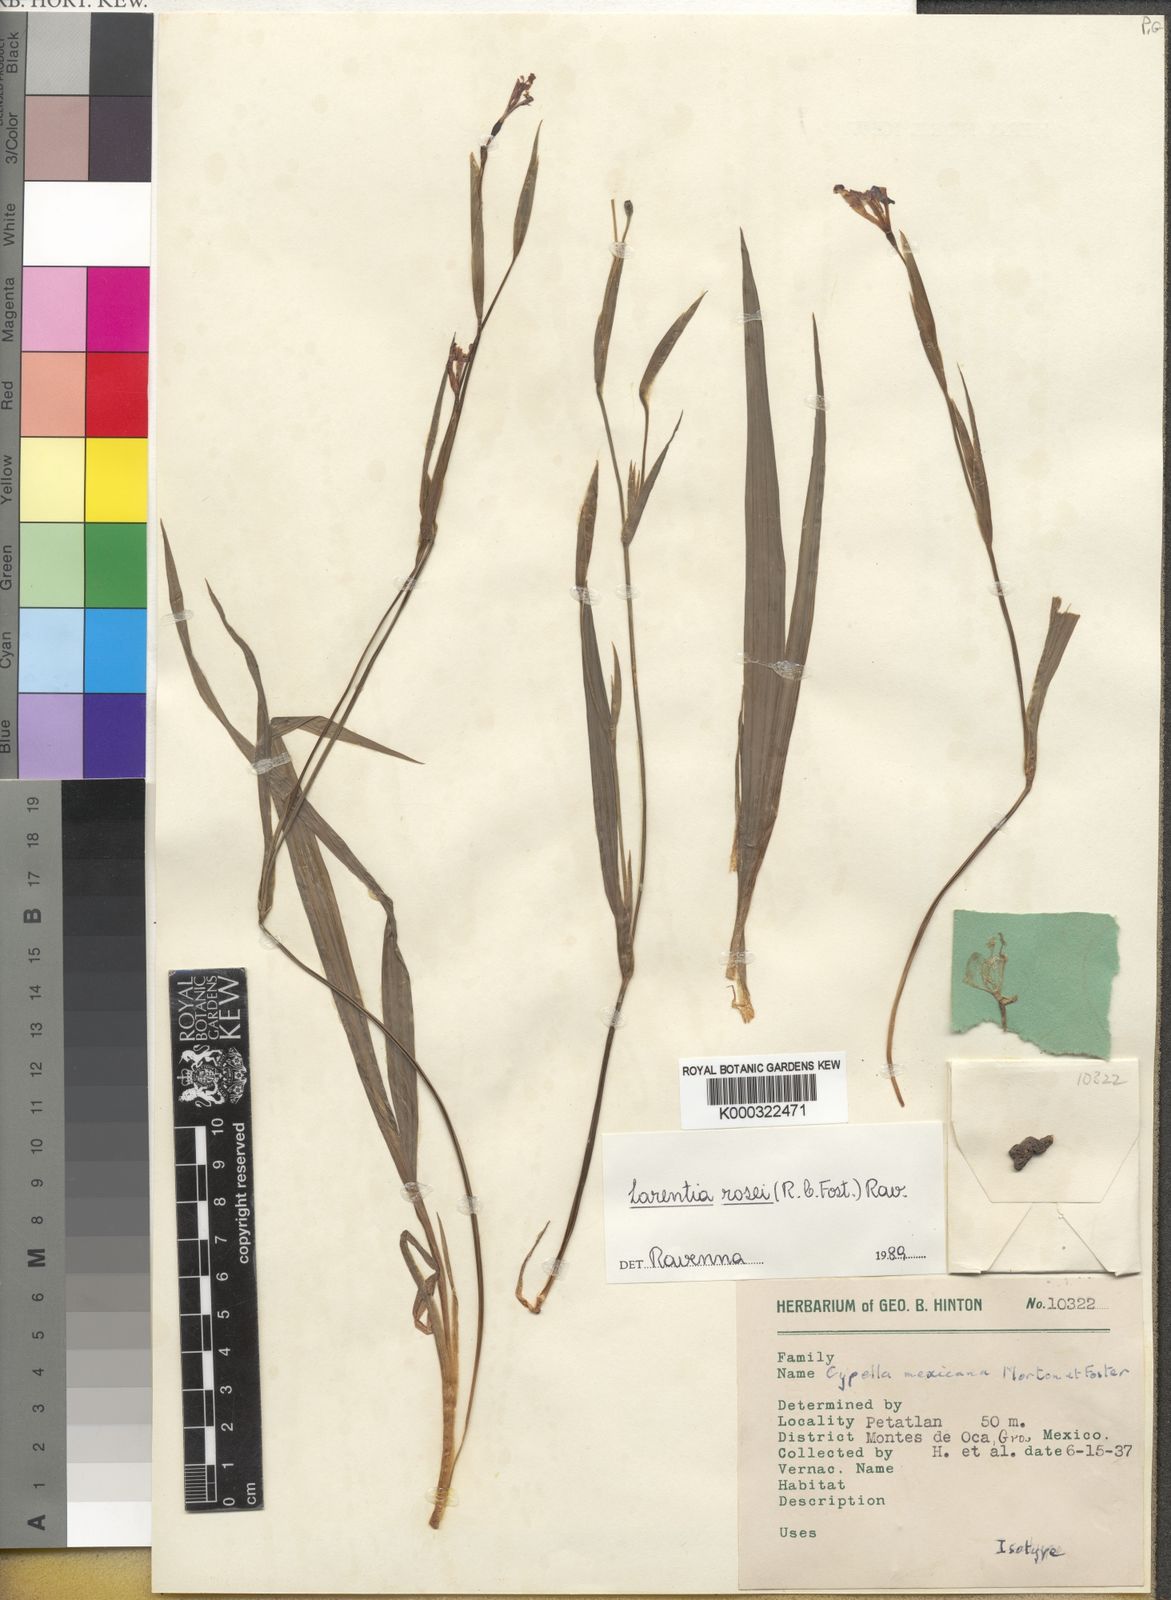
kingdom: Plantae
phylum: Tracheophyta
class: Liliopsida
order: Asparagales
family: Iridaceae
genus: Larentia
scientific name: Larentia rosei
